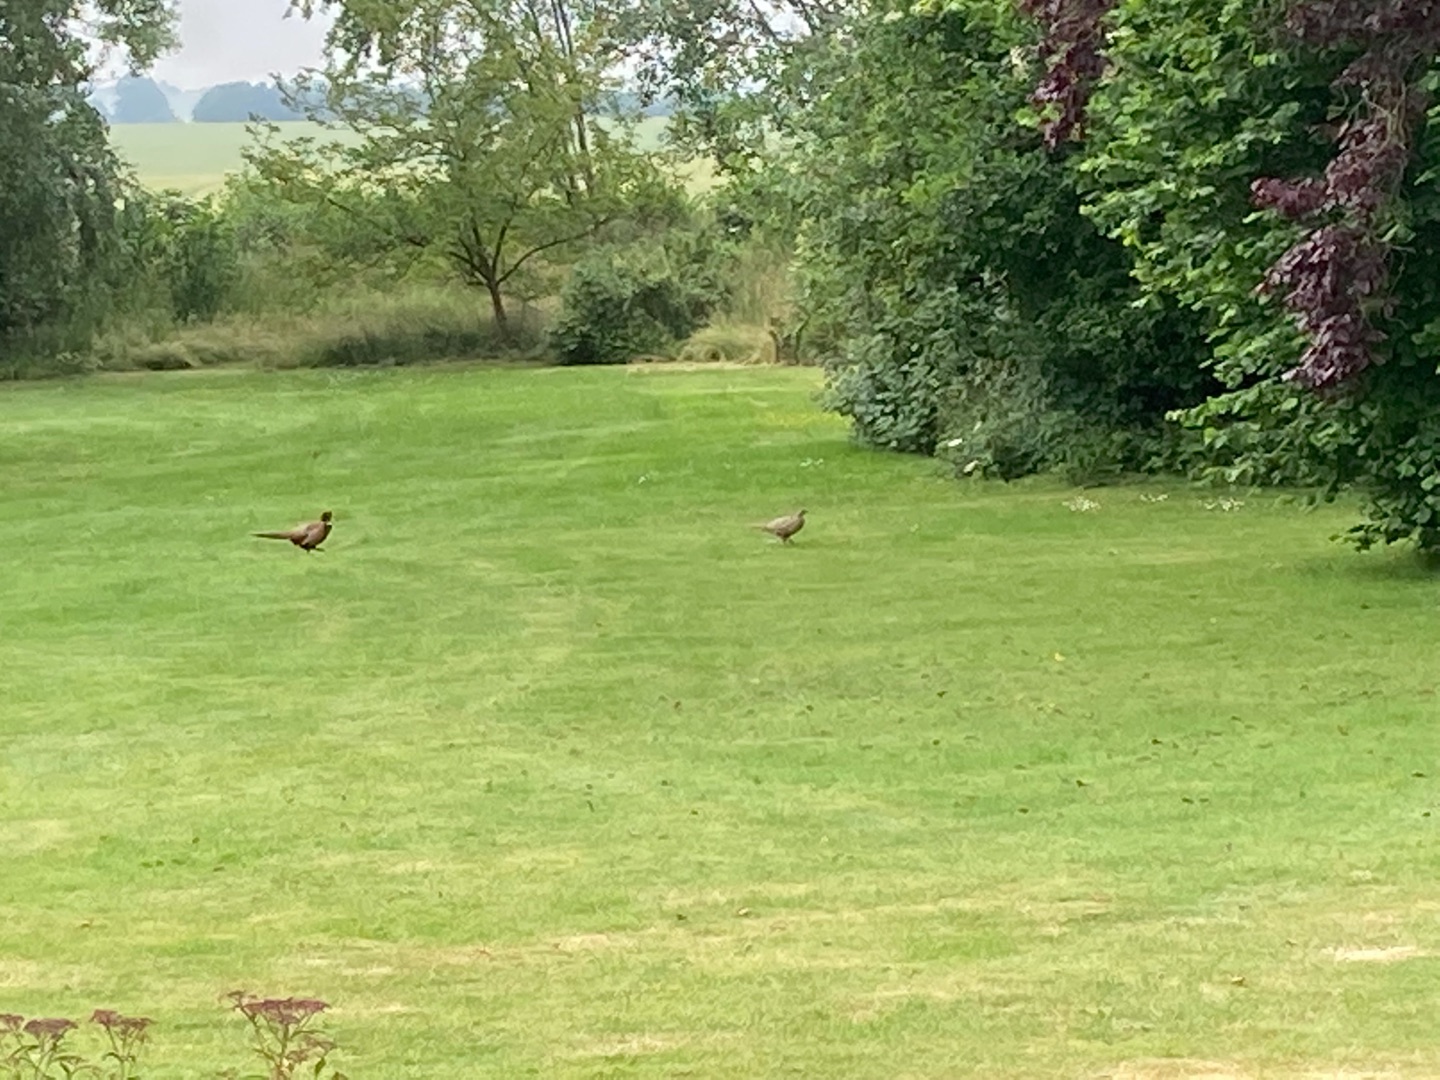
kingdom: Animalia
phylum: Chordata
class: Aves
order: Galliformes
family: Phasianidae
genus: Phasianus
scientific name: Phasianus colchicus
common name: Fasan
